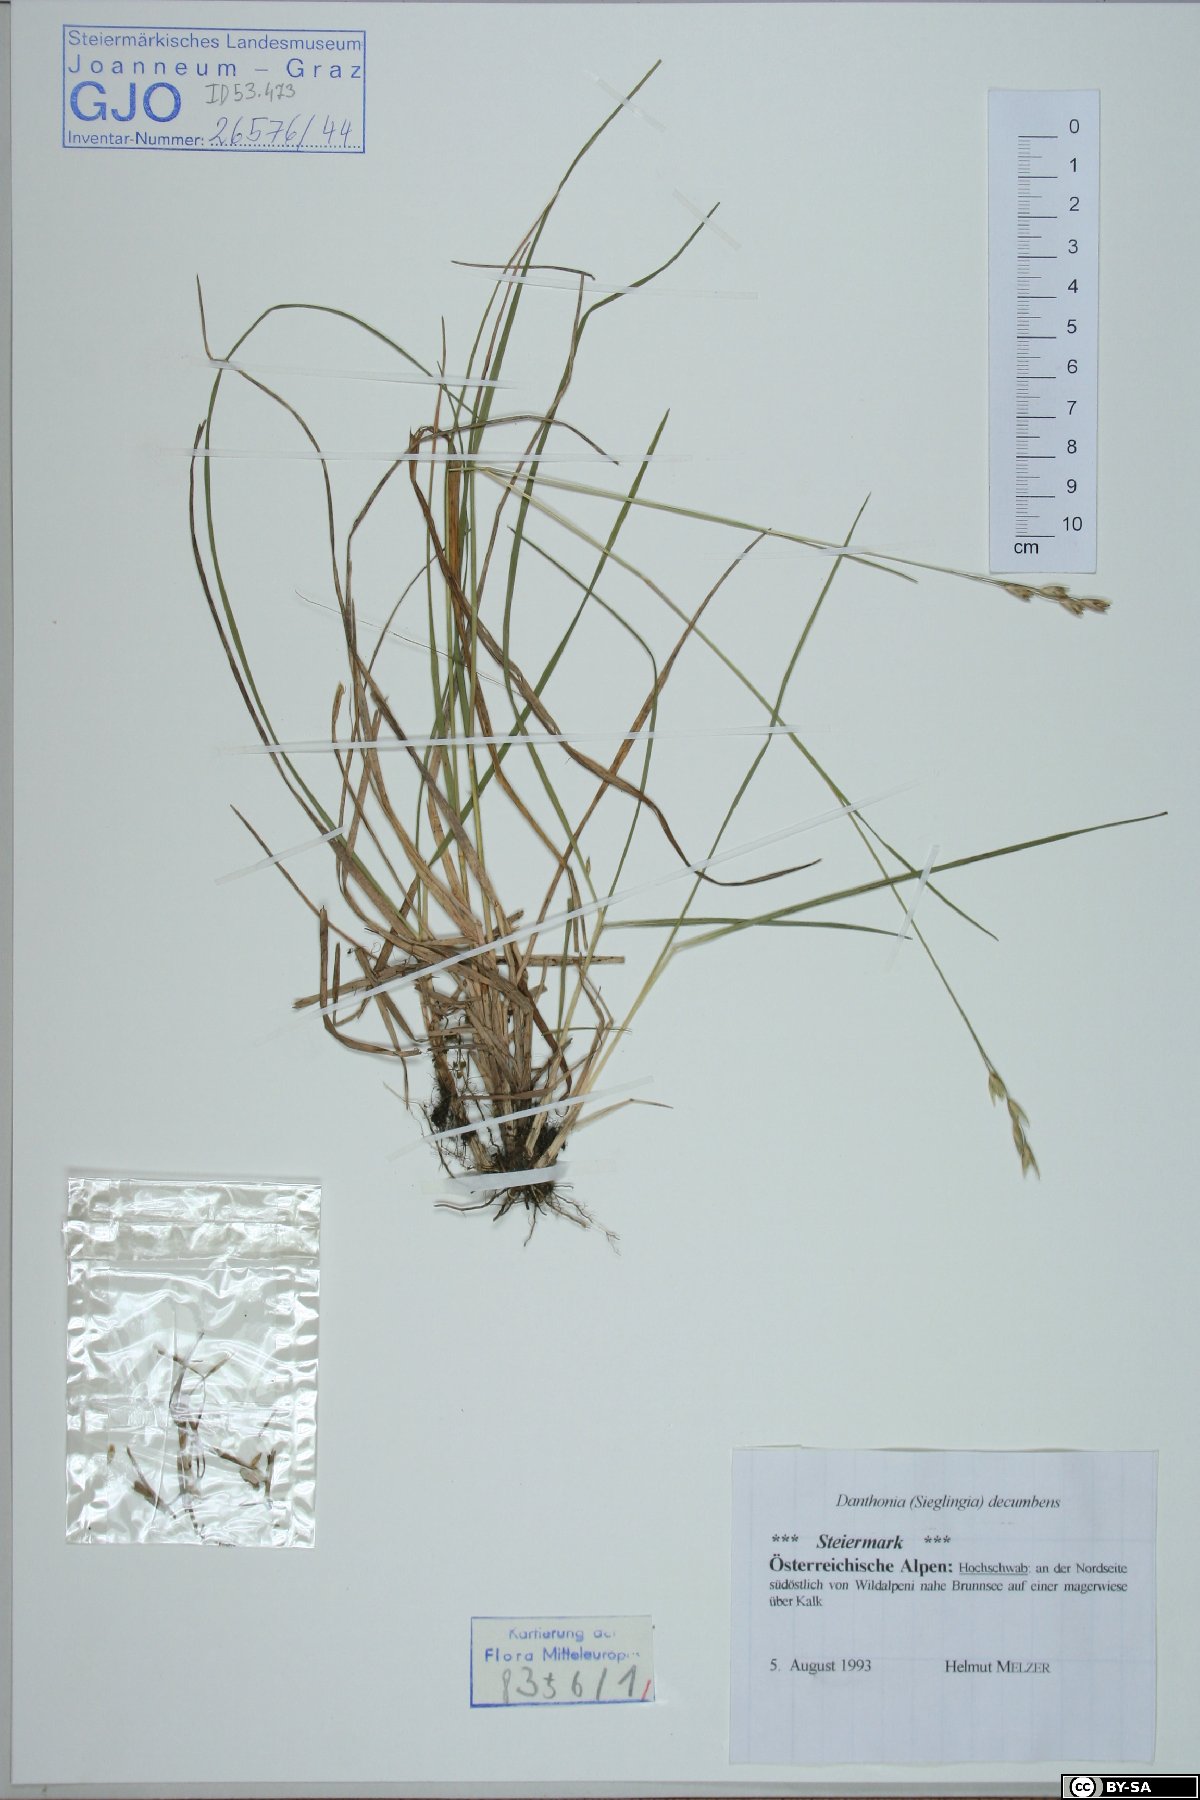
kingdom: Plantae
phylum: Tracheophyta
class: Liliopsida
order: Poales
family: Poaceae
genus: Danthonia
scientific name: Danthonia decumbens
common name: Common heathgrass
